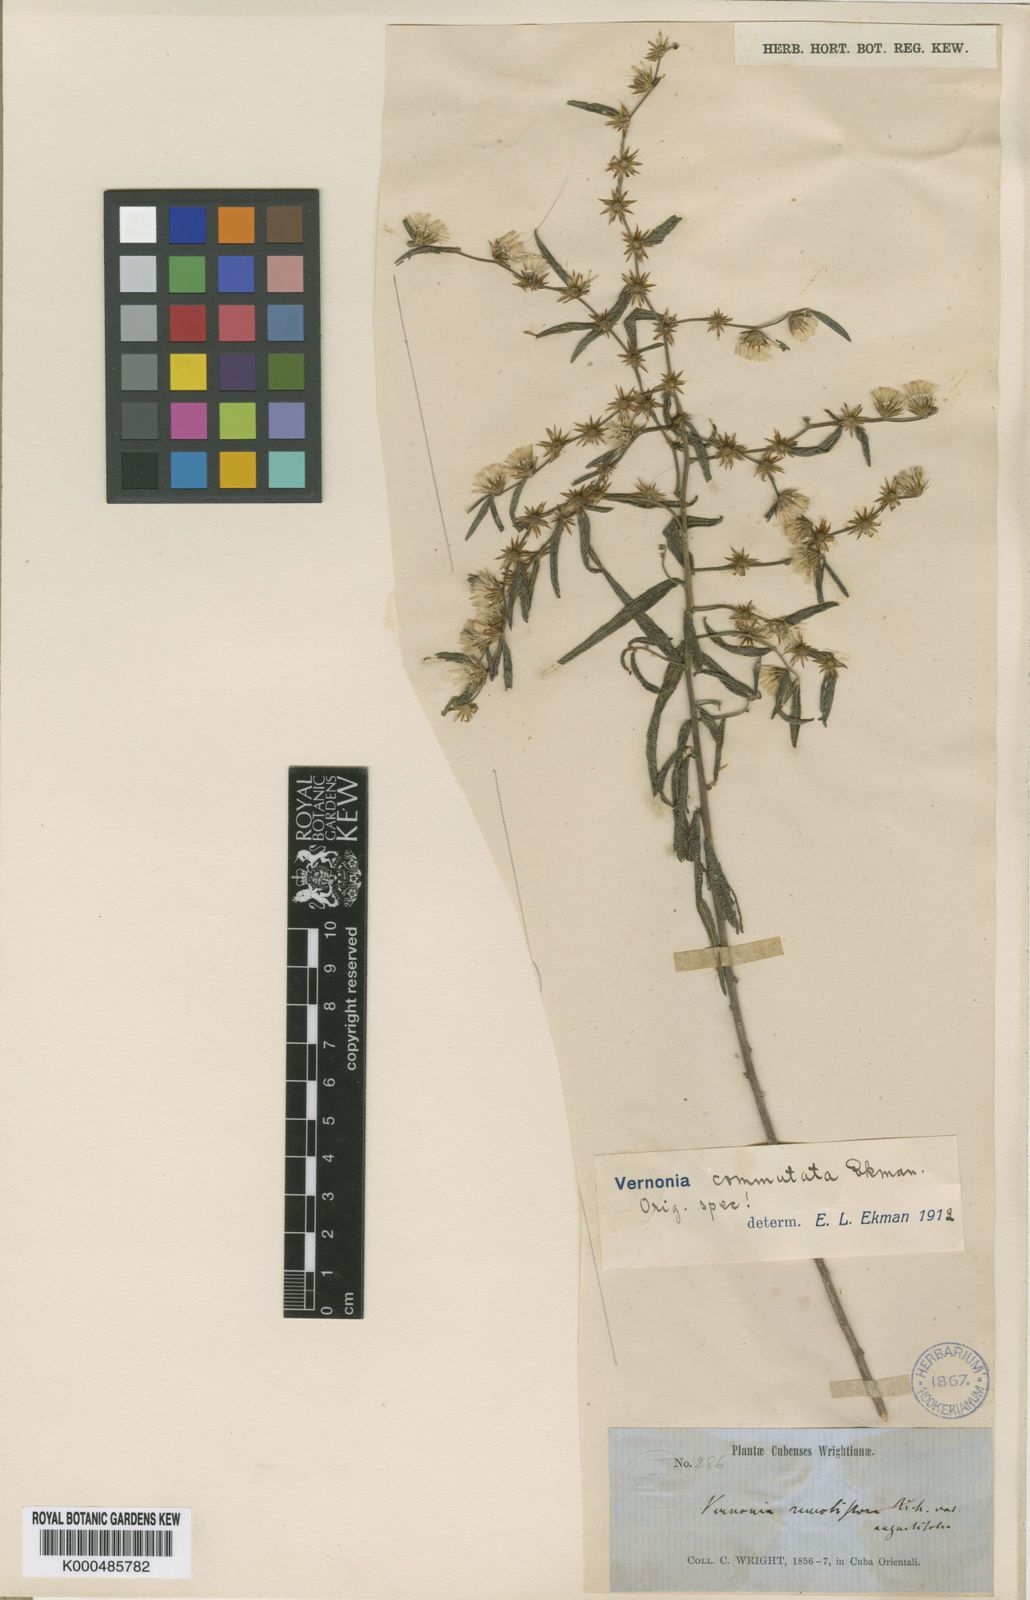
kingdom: Plantae
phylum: Tracheophyta
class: Magnoliopsida
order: Asterales
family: Asteraceae
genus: Lepidaploa
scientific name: Lepidaploa commutata
